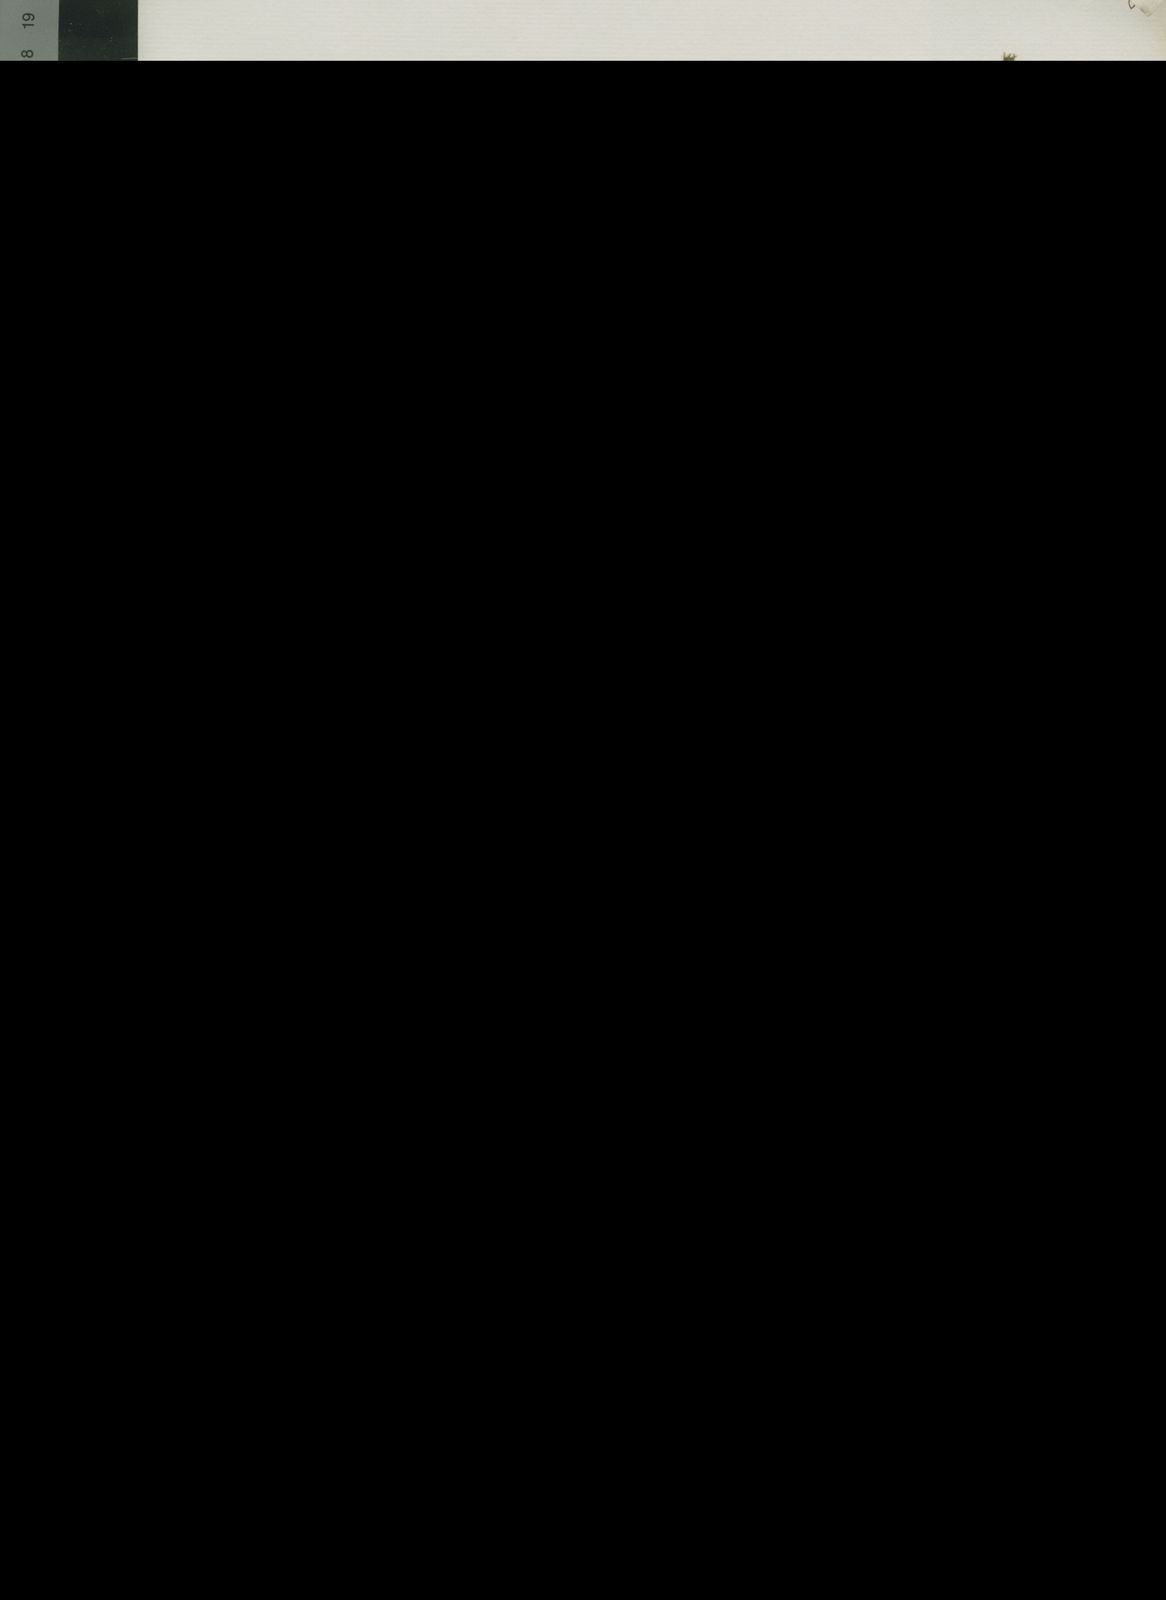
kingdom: Plantae
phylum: Tracheophyta
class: Magnoliopsida
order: Asterales
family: Campanulaceae
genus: Wahlenbergia
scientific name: Wahlenbergia
